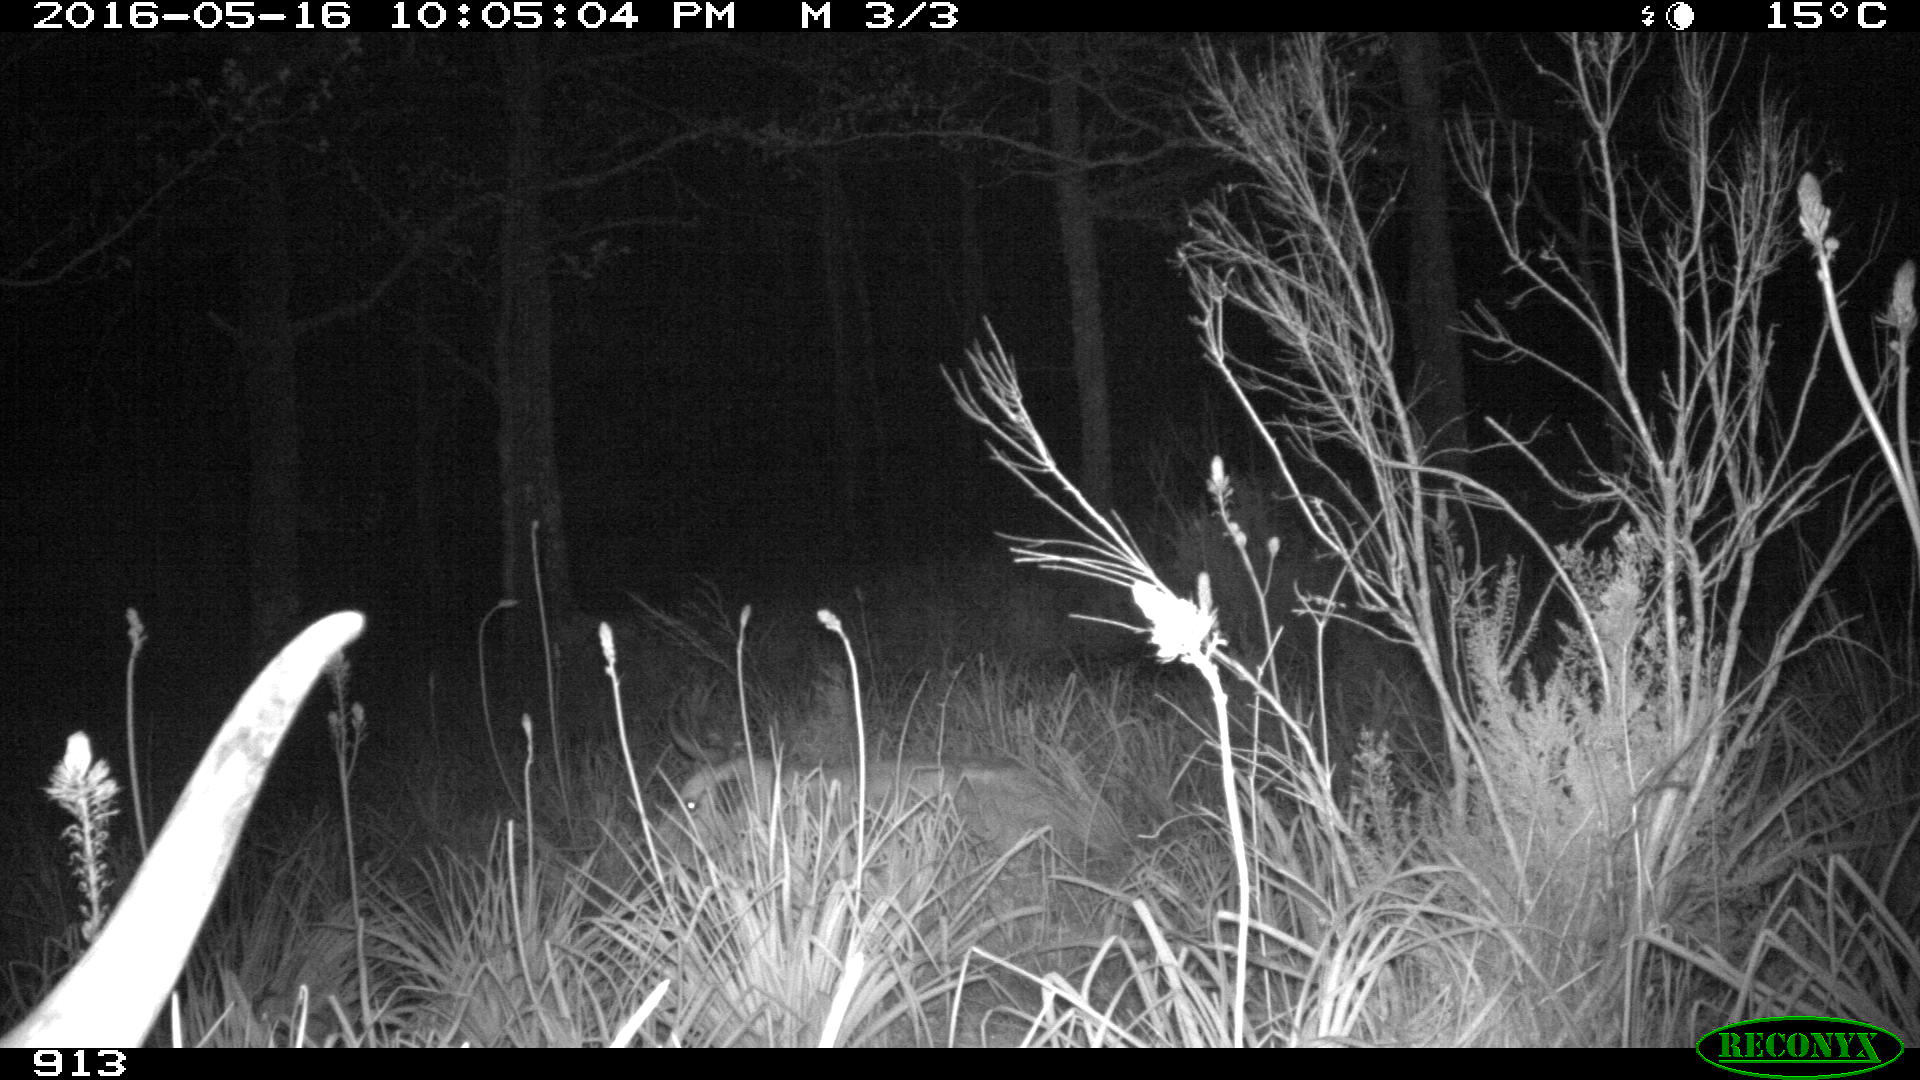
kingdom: Animalia
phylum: Chordata
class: Mammalia
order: Artiodactyla
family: Bovidae
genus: Bos
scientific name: Bos taurus
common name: Domesticated cattle
